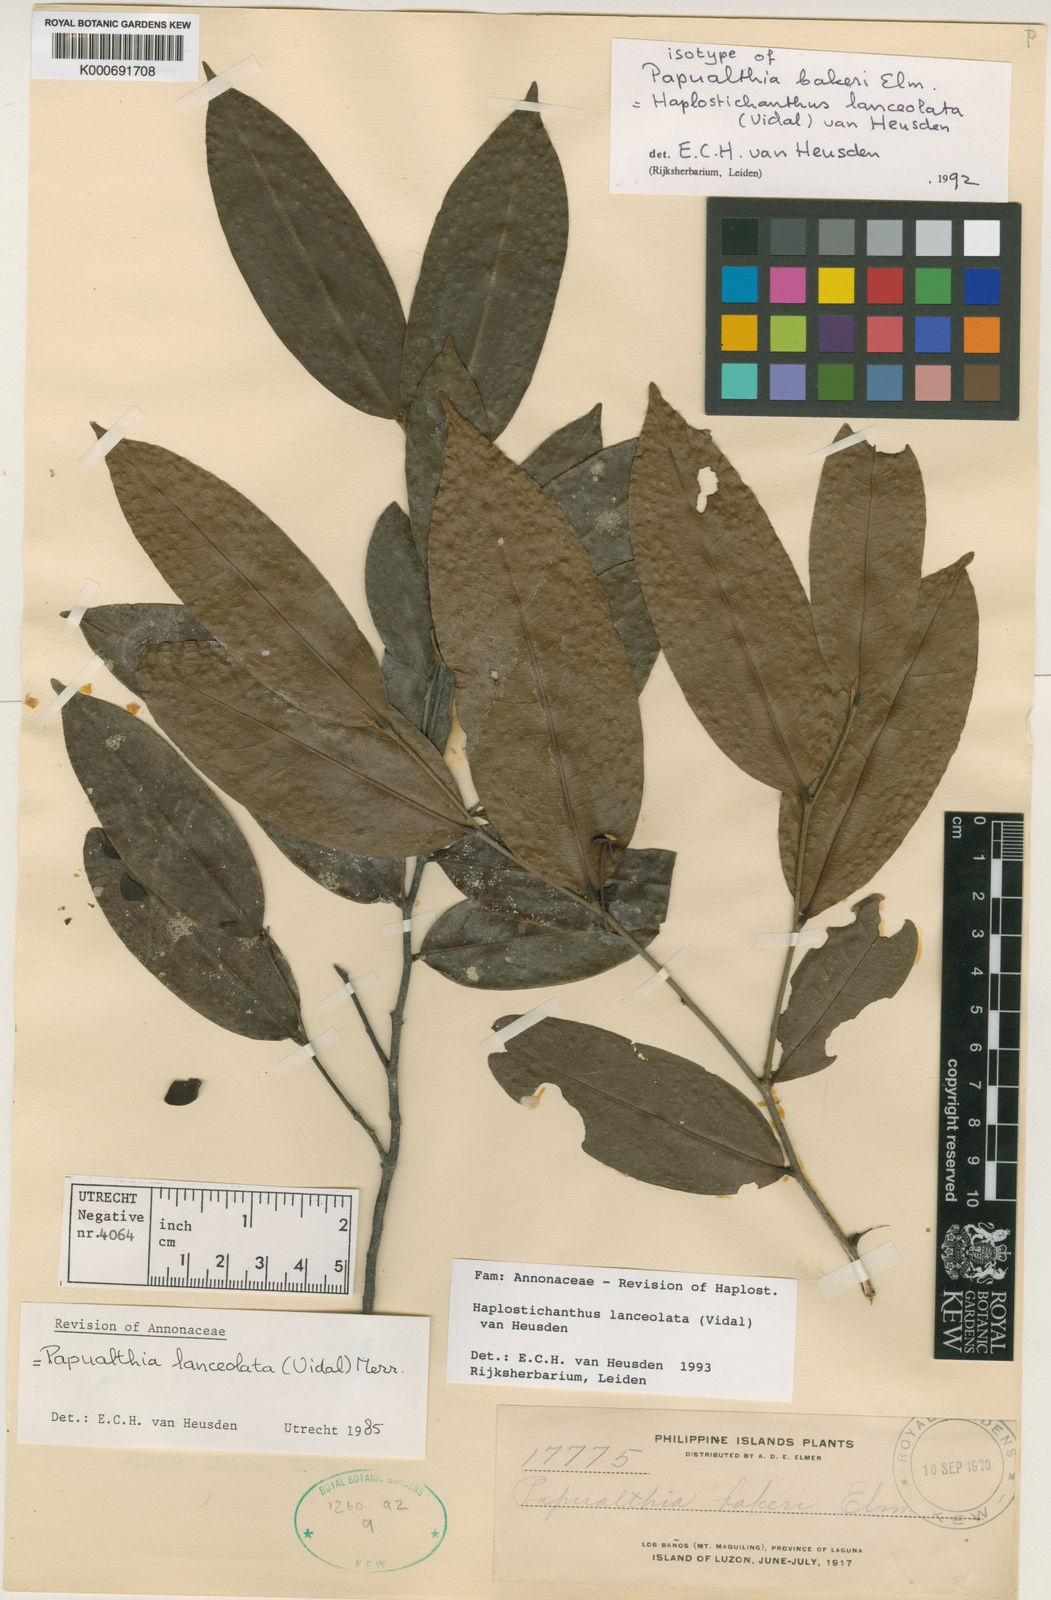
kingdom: Plantae
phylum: Tracheophyta
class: Magnoliopsida
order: Magnoliales
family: Annonaceae
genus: Haplostichanthus
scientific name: Haplostichanthus lanceolata
